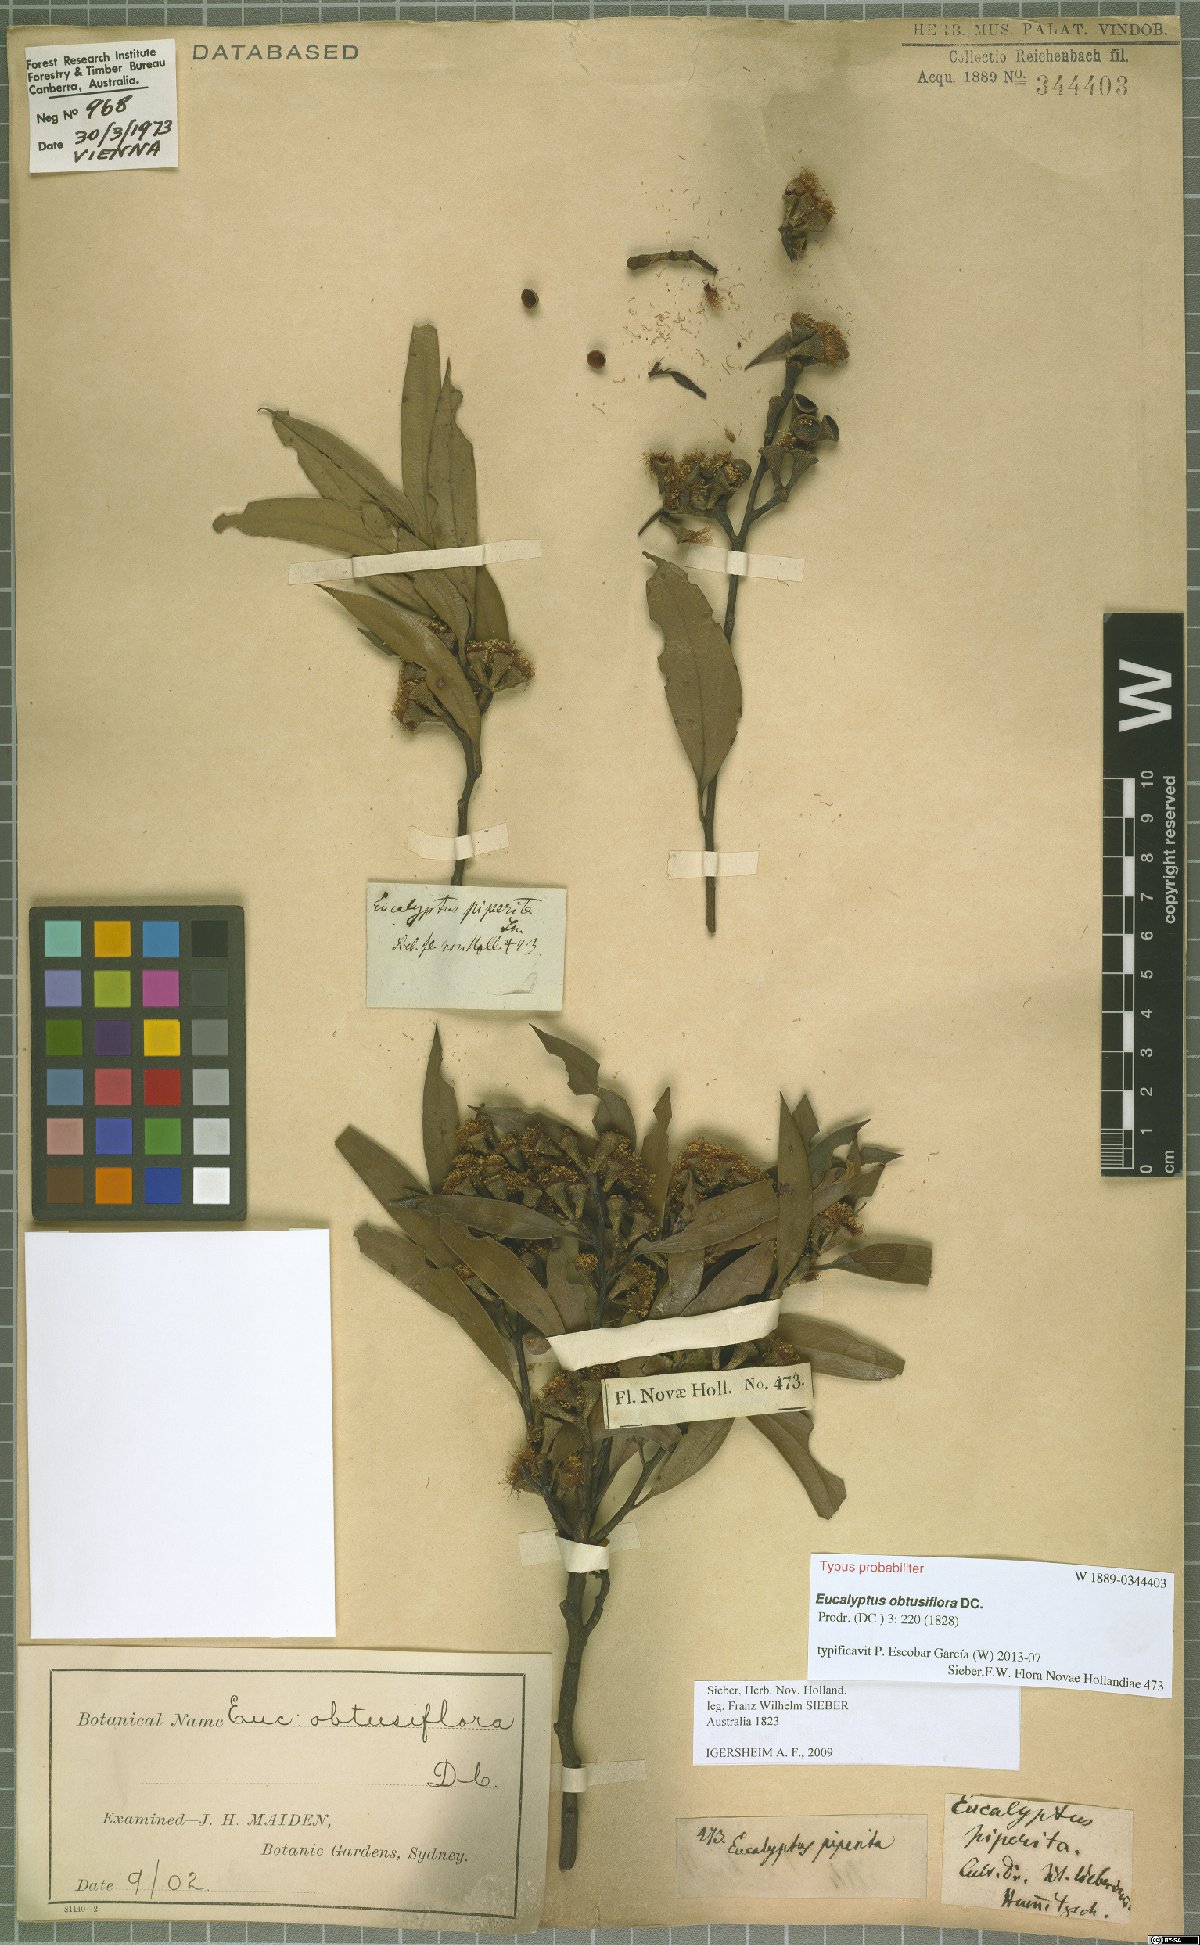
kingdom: Plantae
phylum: Tracheophyta
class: Magnoliopsida
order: Myrtales
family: Myrtaceae
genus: Eucalyptus
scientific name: Eucalyptus obtusiflora
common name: Dongara-mallee
